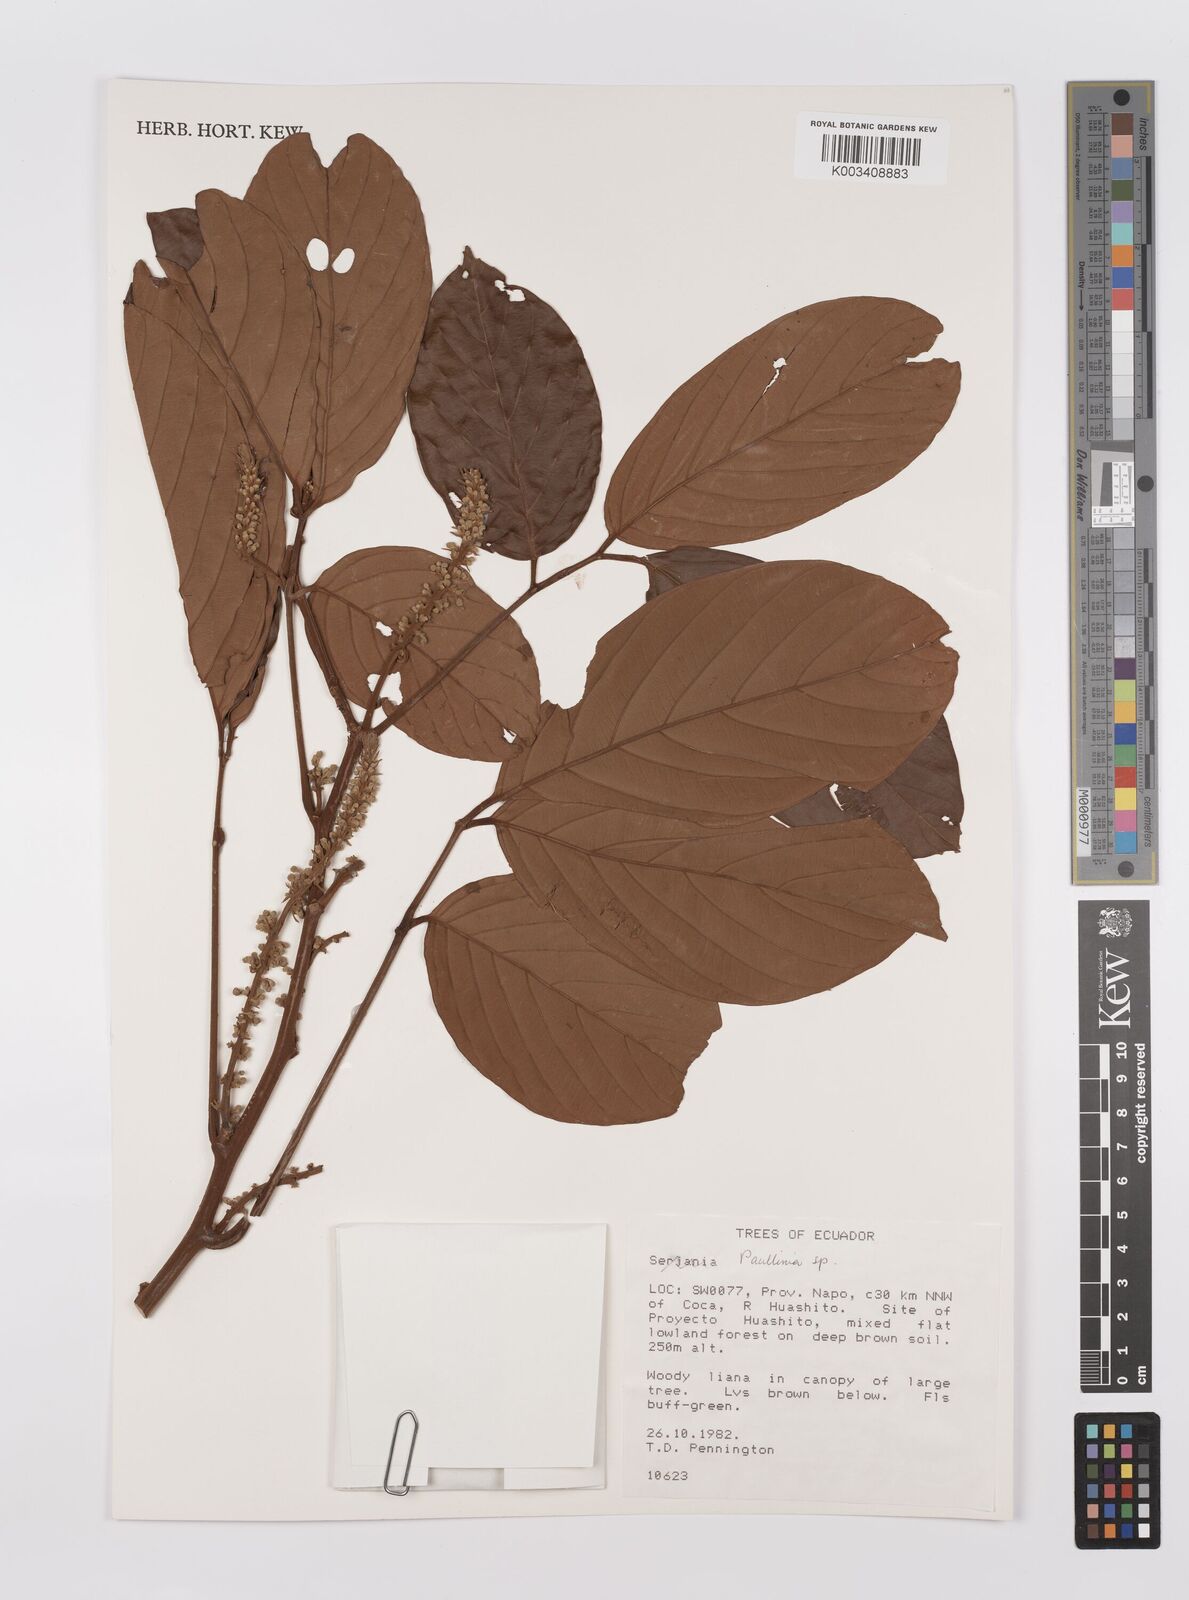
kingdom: Plantae
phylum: Tracheophyta
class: Magnoliopsida
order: Sapindales
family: Sapindaceae
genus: Paullinia
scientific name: Paullinia
